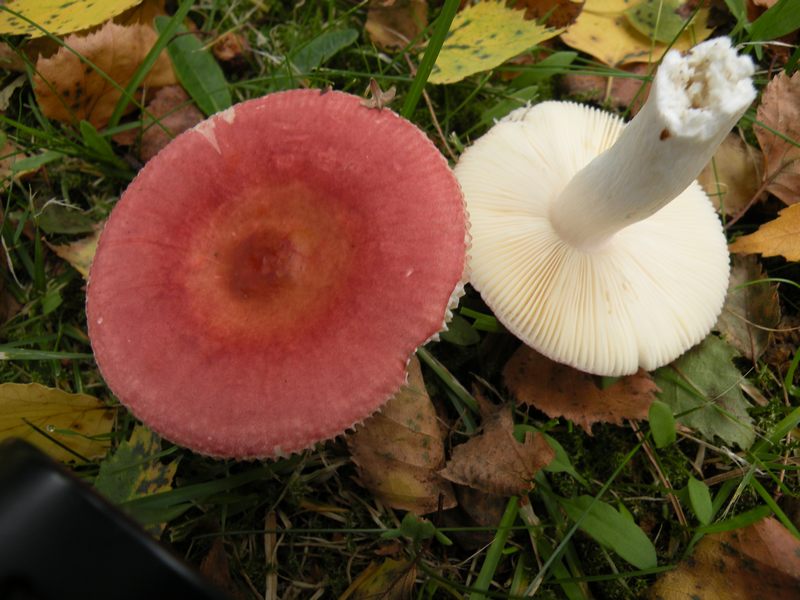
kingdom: Fungi
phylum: Basidiomycota
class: Agaricomycetes
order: Russulales
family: Russulaceae
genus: Russula
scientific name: Russula velenovskyi
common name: orangerød skørhat
